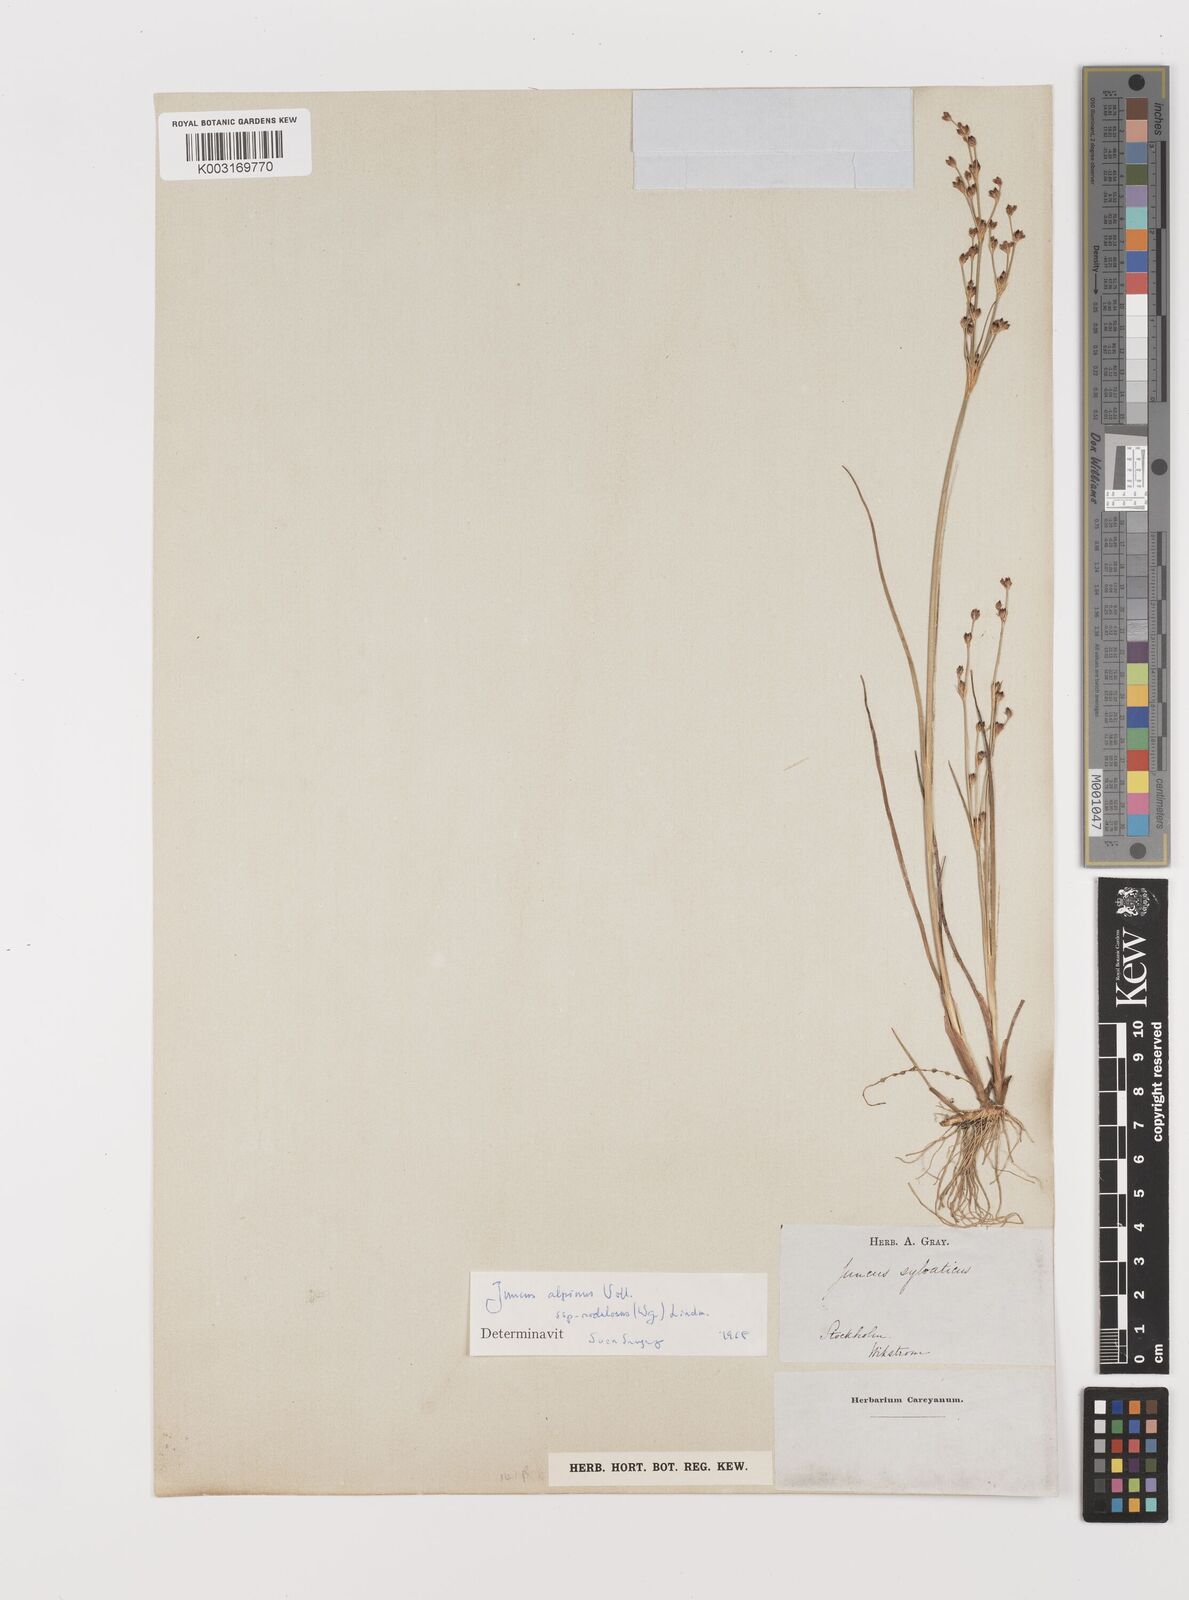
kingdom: Plantae
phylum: Tracheophyta
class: Liliopsida
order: Poales
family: Juncaceae
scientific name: Juncaceae
